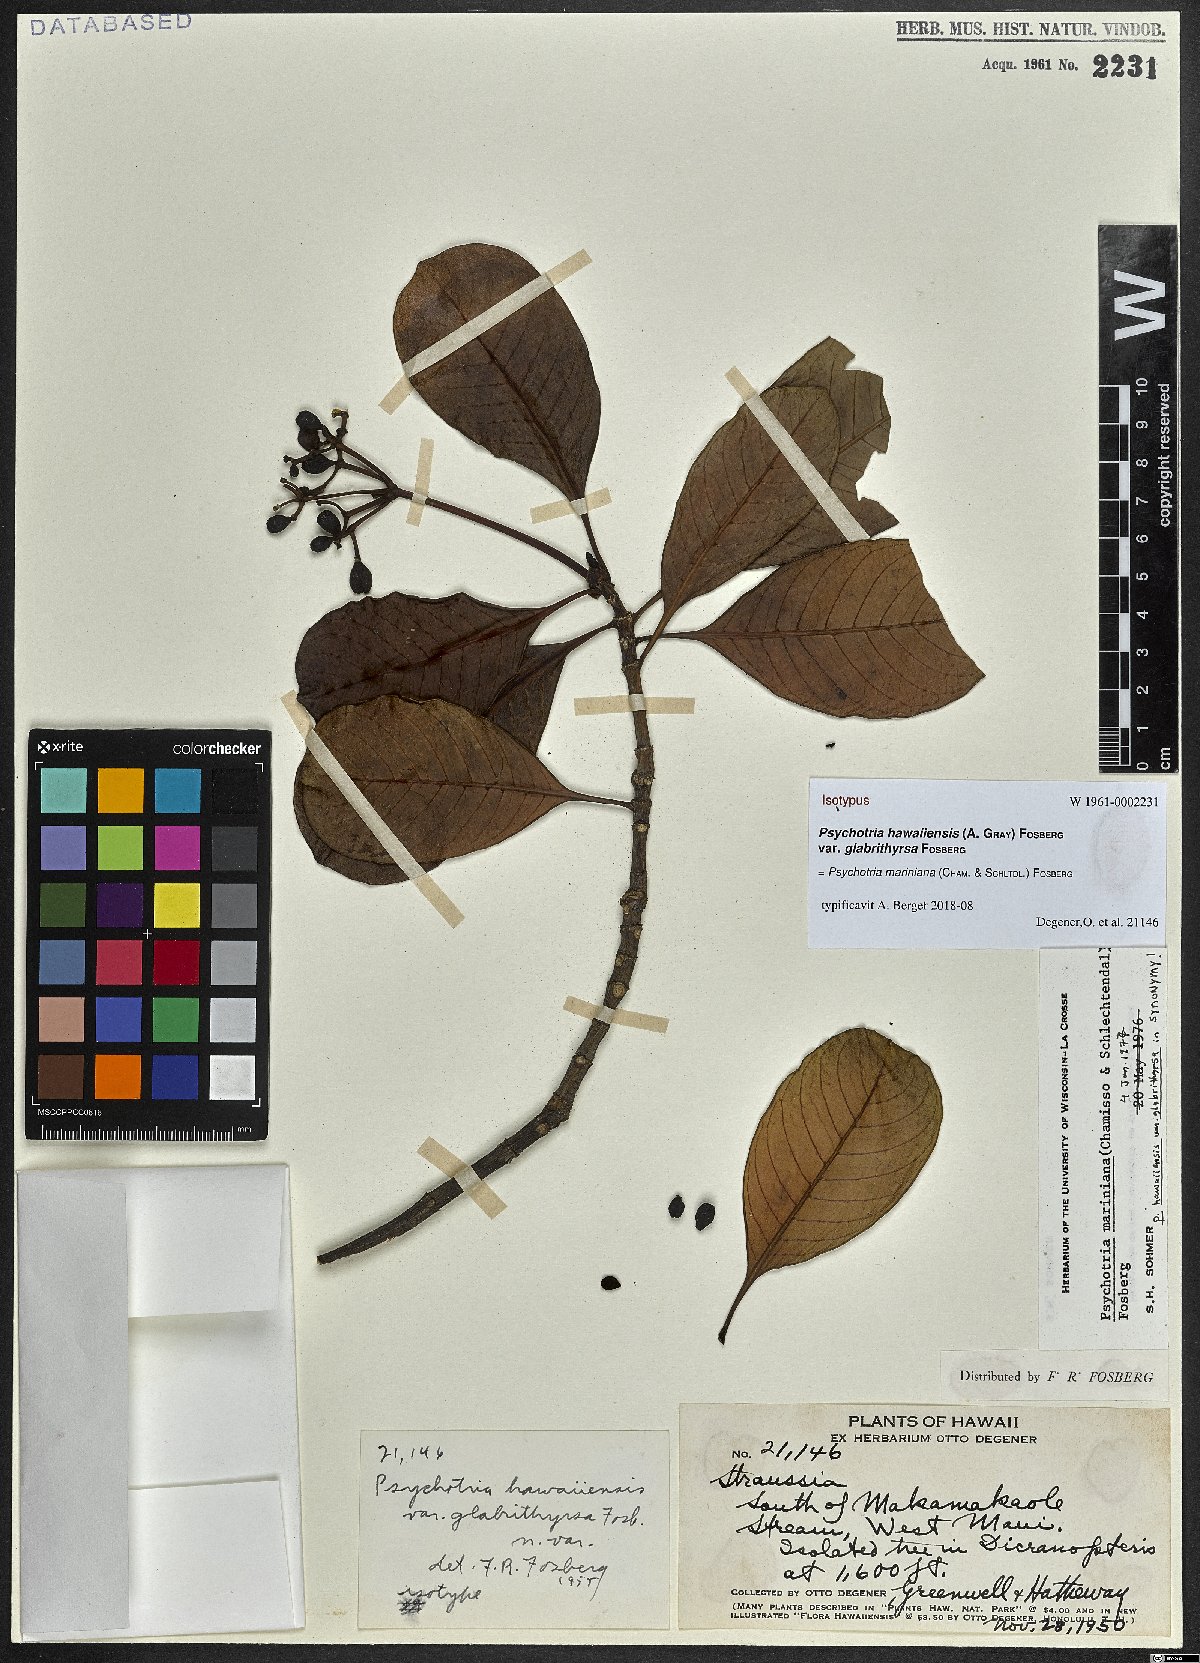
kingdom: Plantae
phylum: Tracheophyta
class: Magnoliopsida
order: Gentianales
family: Rubiaceae
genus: Psychotria
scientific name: Psychotria mariniana
